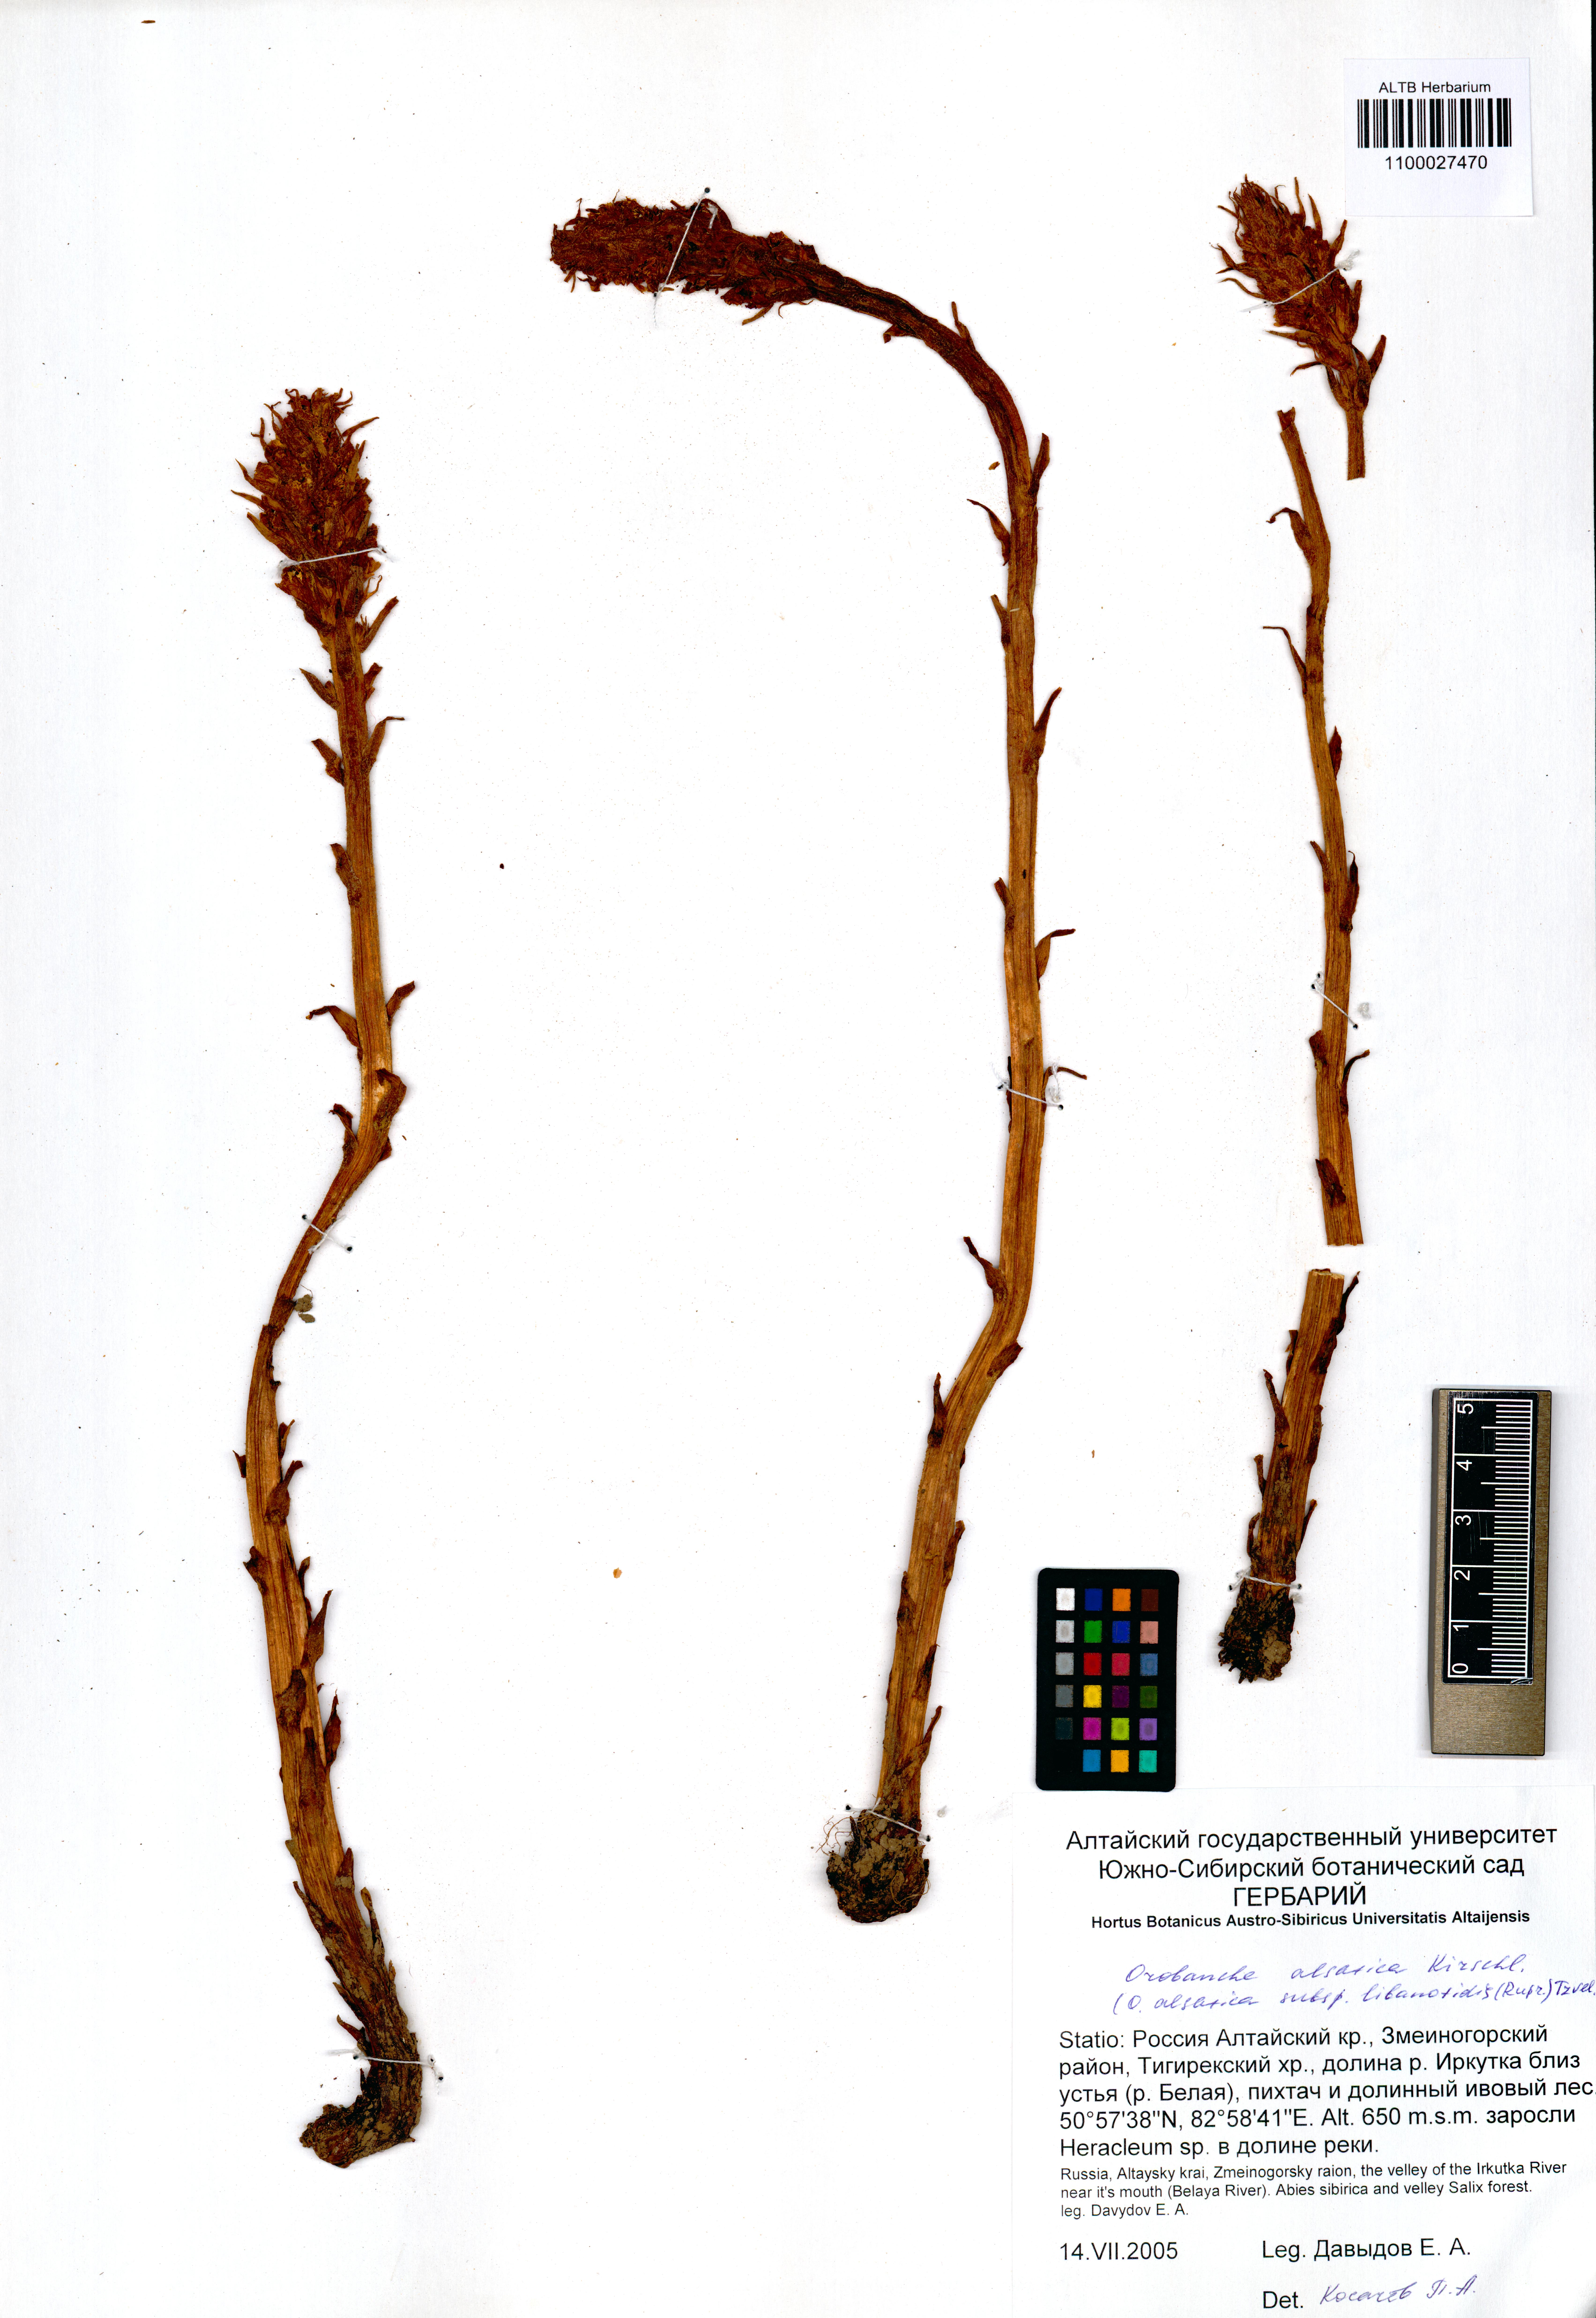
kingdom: Plantae
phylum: Tracheophyta
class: Magnoliopsida
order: Lamiales
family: Orobanchaceae
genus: Orobanche
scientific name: Orobanche alsatica
